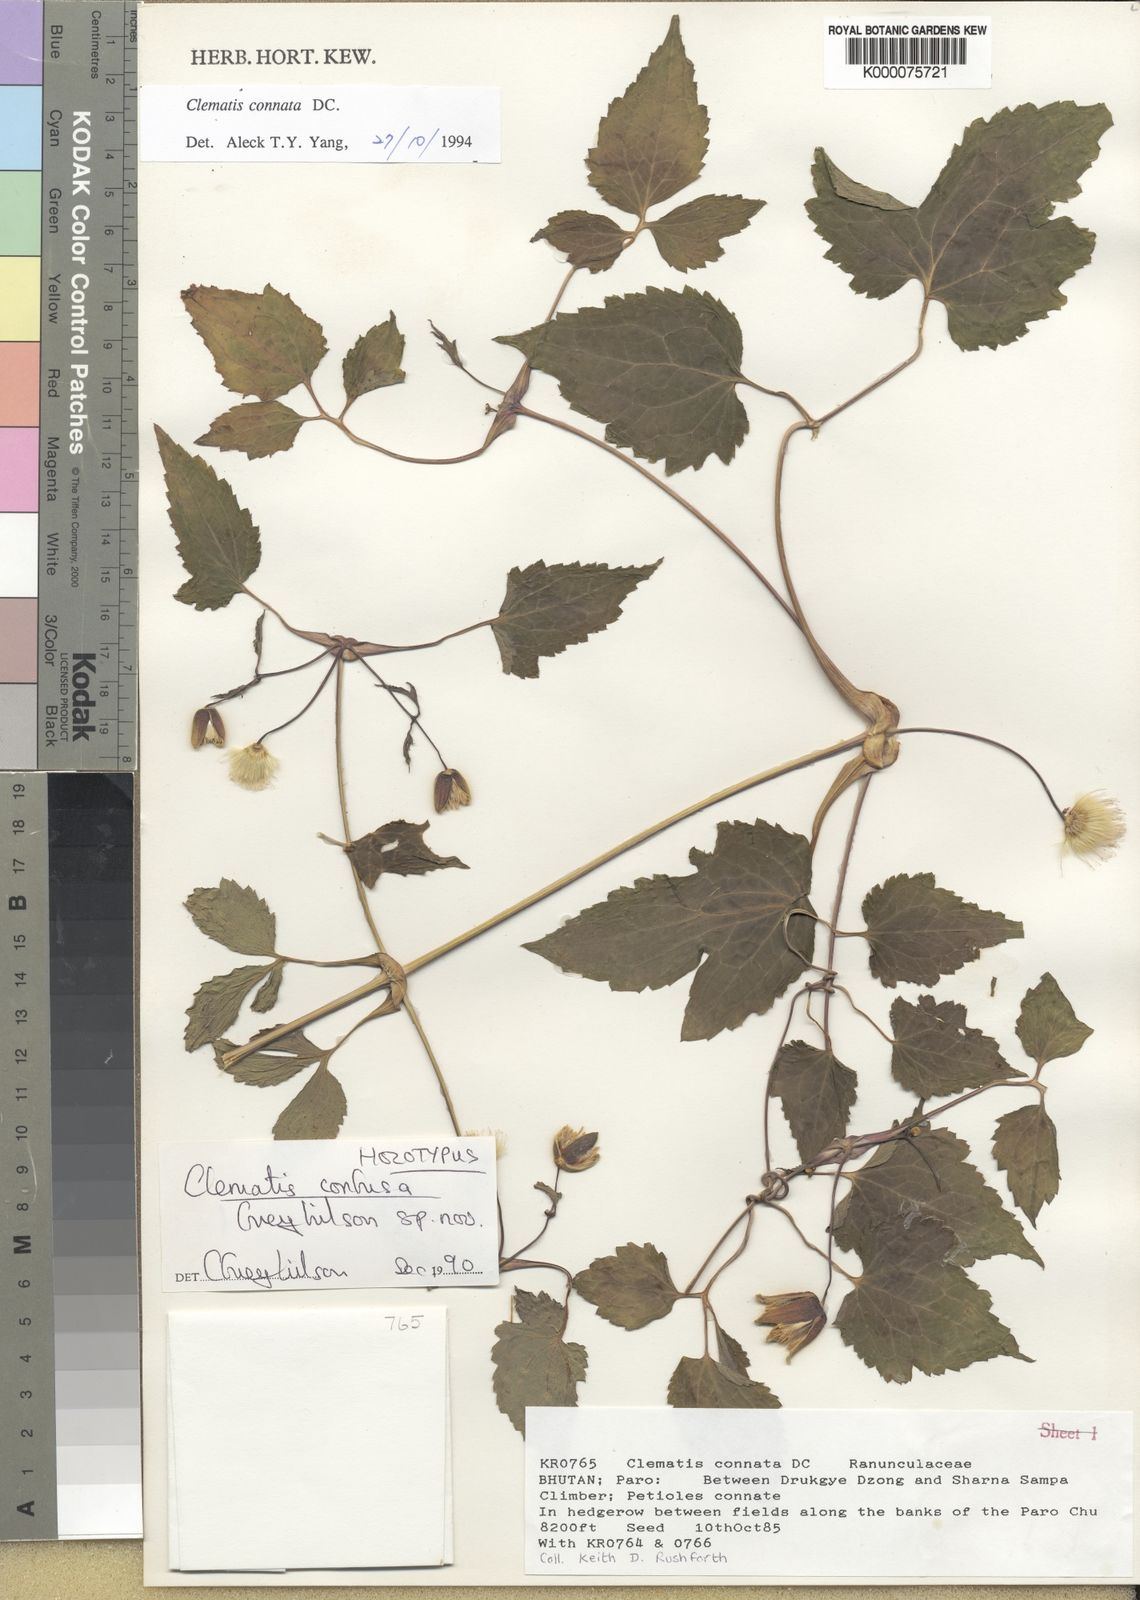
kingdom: Plantae
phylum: Tracheophyta
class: Magnoliopsida
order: Ranunculales
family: Ranunculaceae
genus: Clematis
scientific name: Clematis confusa
